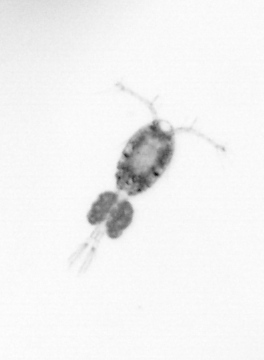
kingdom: Animalia
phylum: Arthropoda
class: Copepoda
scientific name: Copepoda
